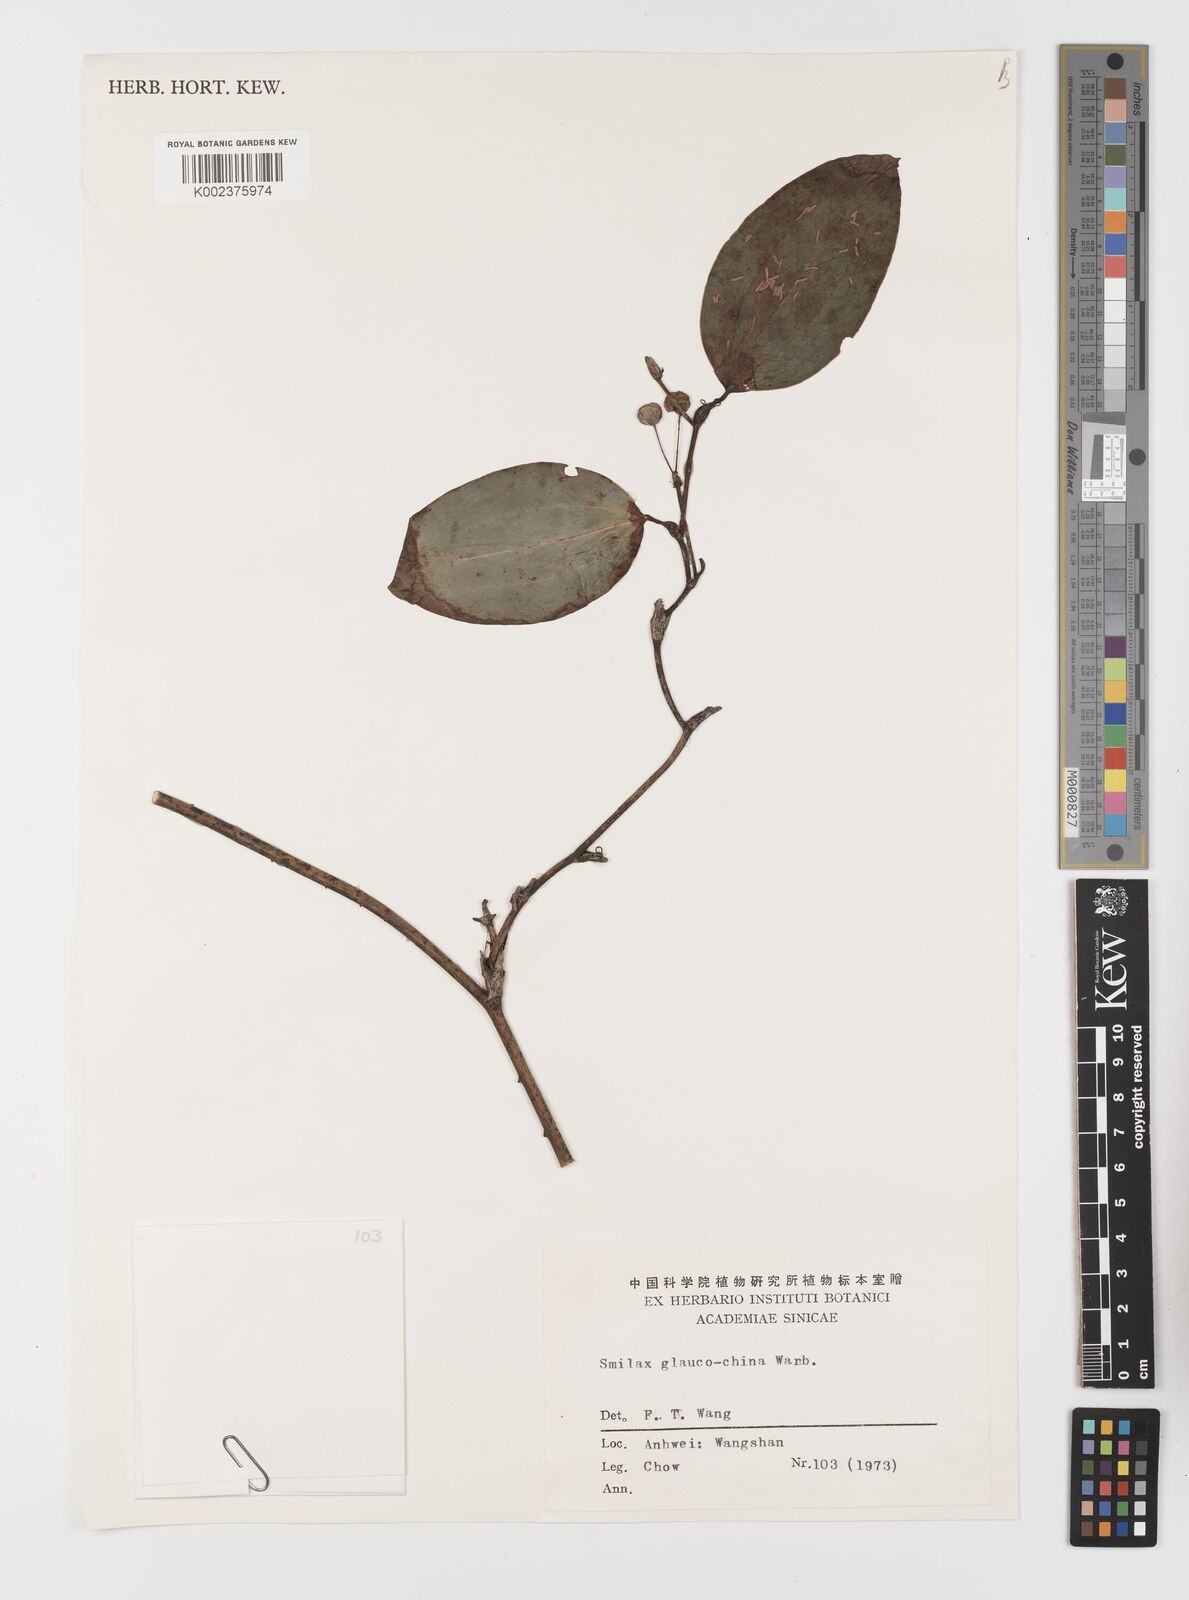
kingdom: Plantae
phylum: Tracheophyta
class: Liliopsida
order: Liliales
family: Smilacaceae
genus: Smilax
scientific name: Smilax glaucochina
